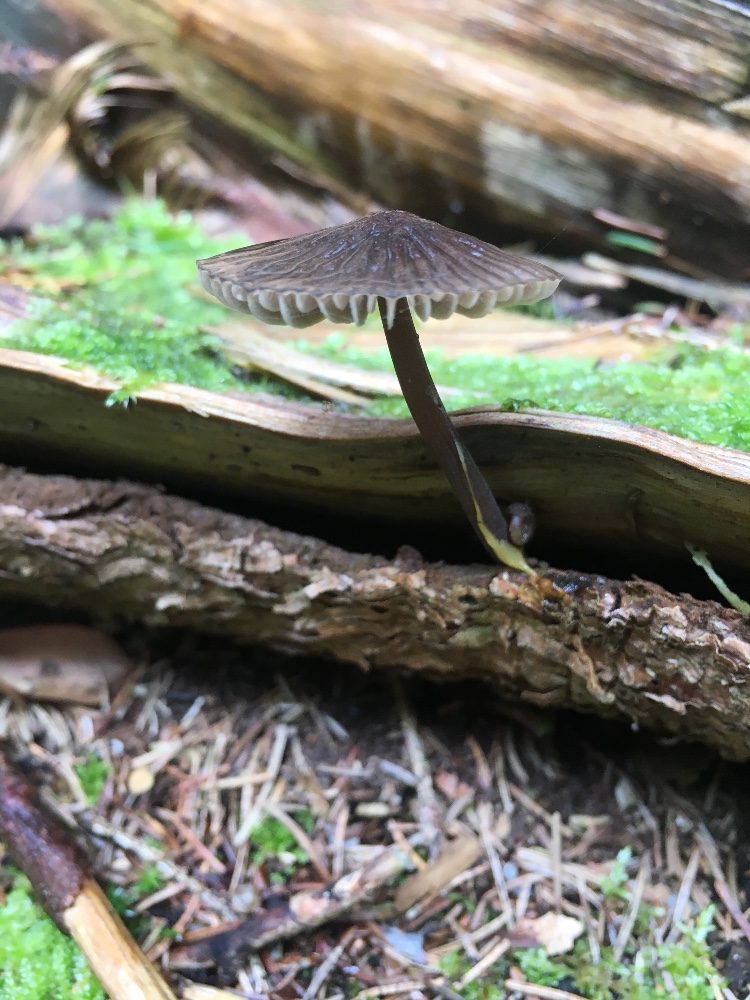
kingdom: Fungi
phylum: Basidiomycota
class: Agaricomycetes
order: Agaricales
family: Mycenaceae
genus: Mycena
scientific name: Mycena galopus
